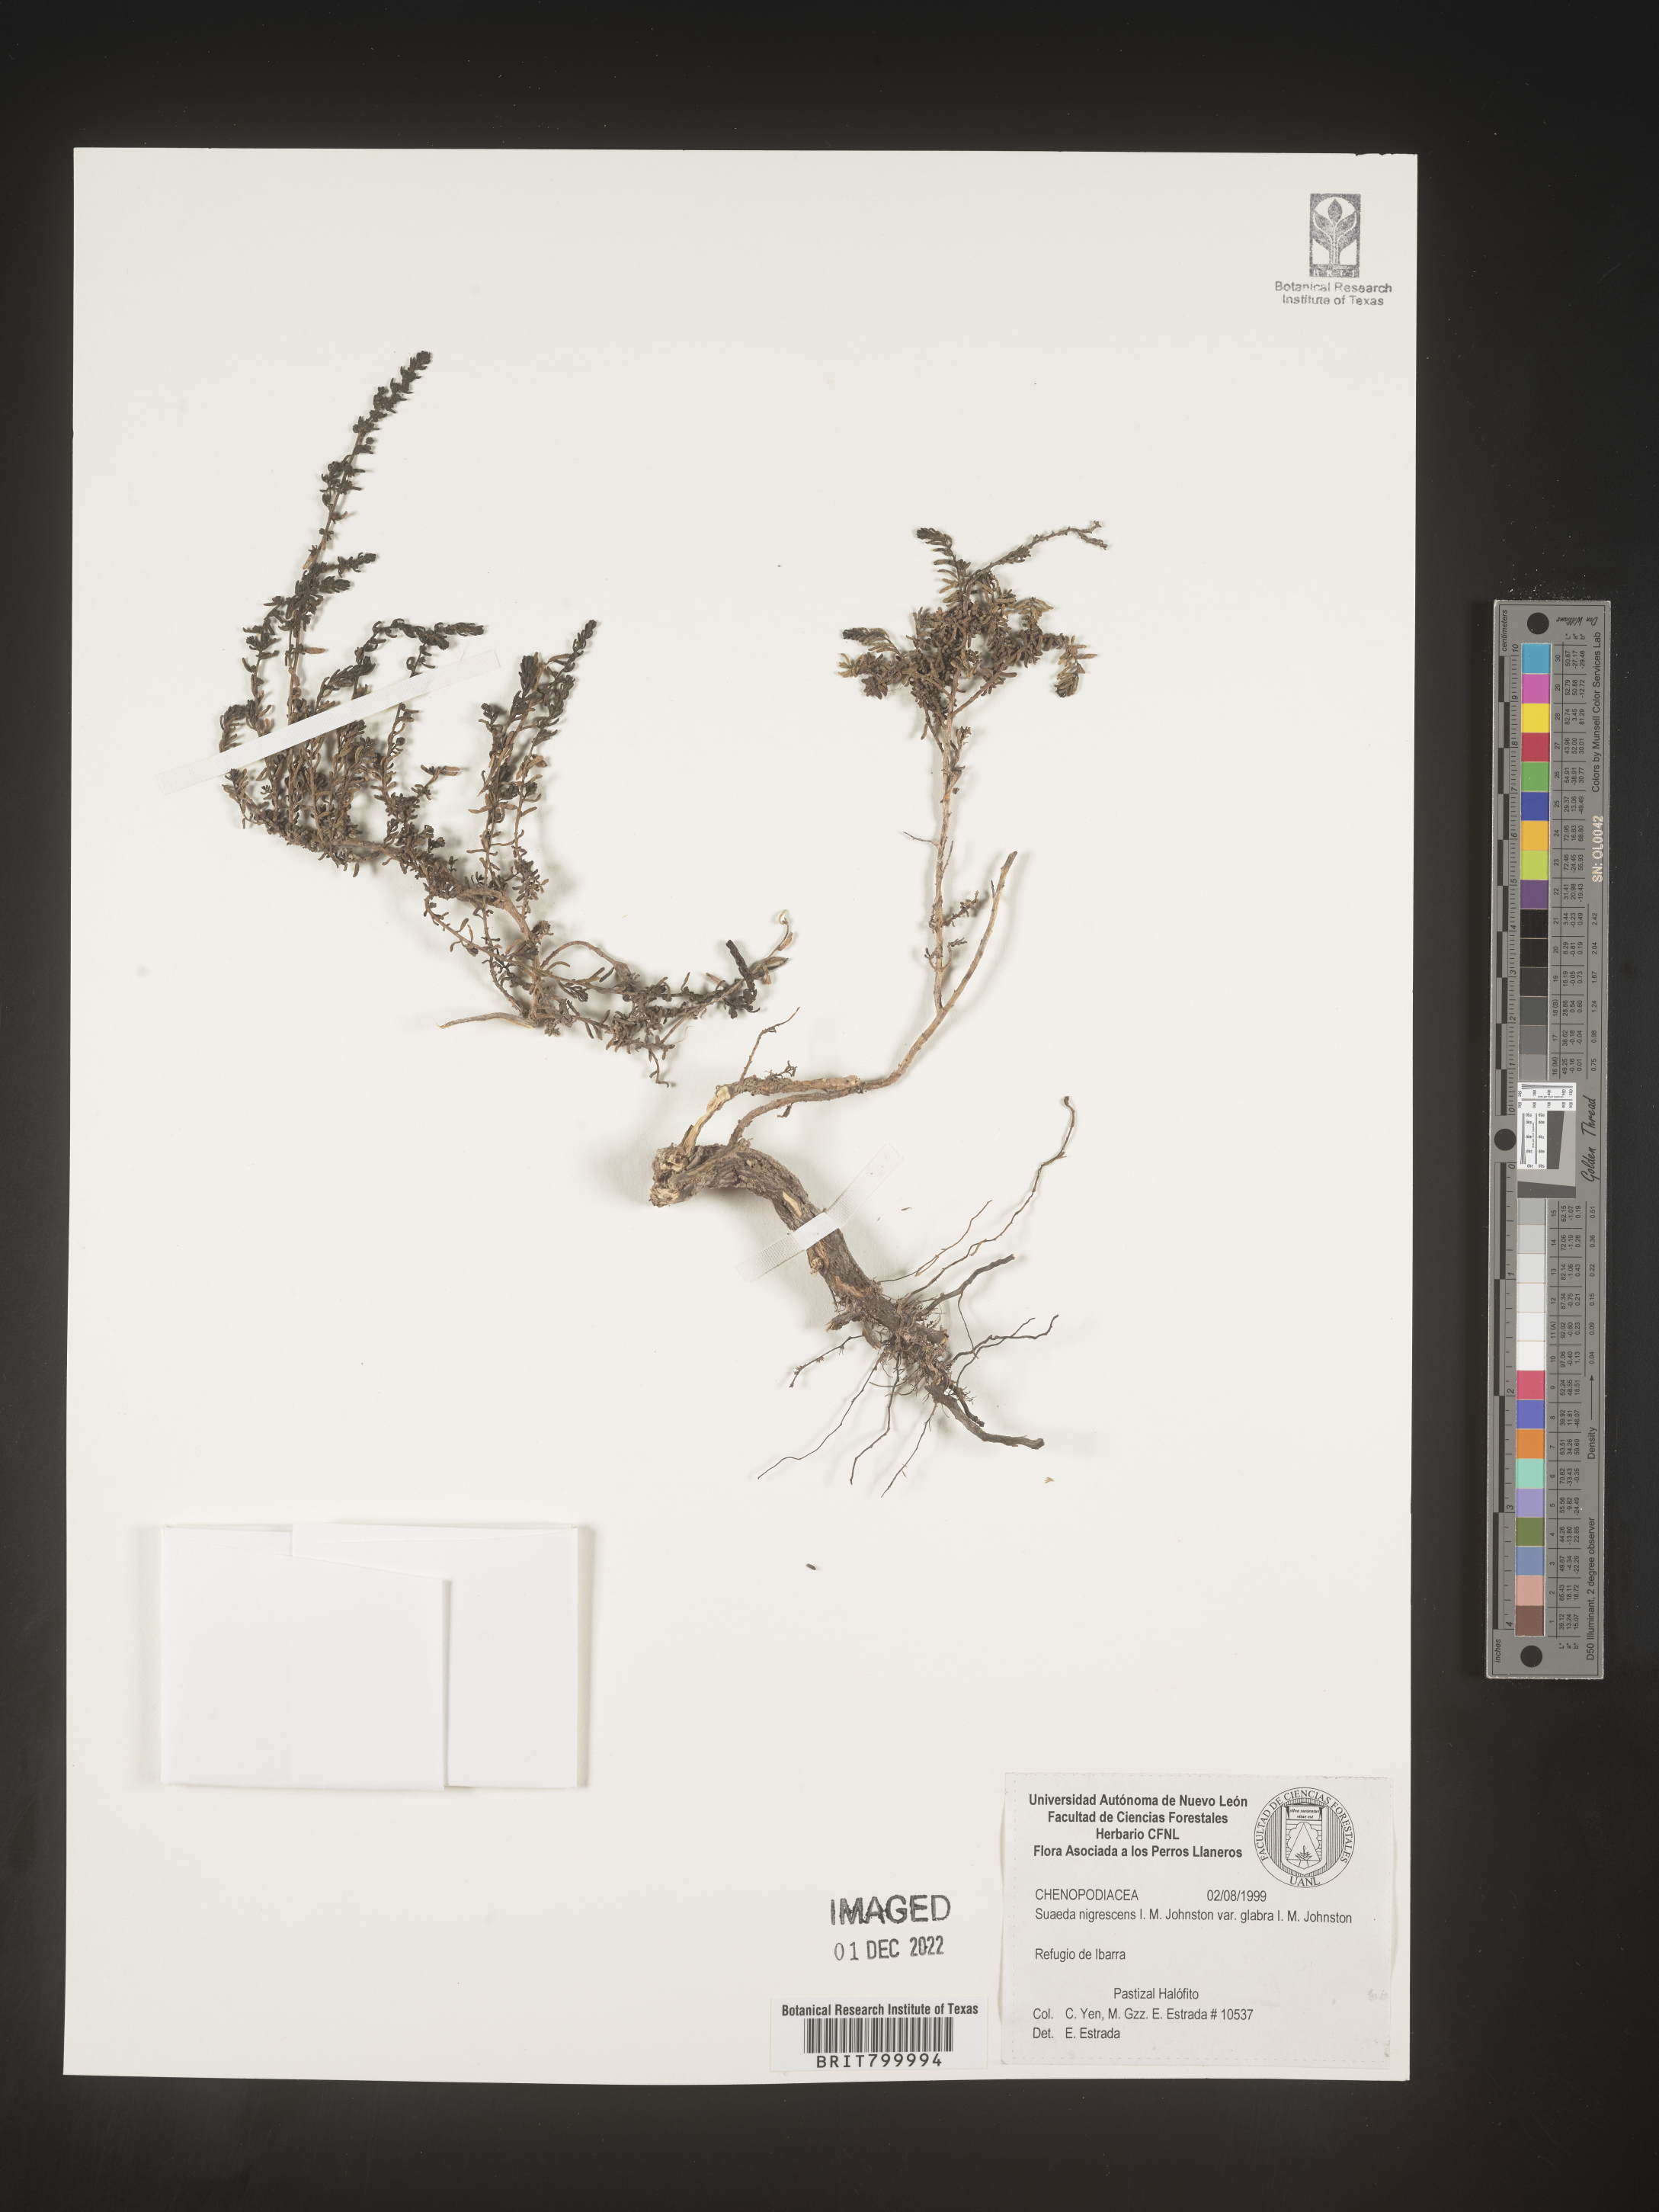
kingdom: Plantae
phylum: Tracheophyta
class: Magnoliopsida
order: Caryophyllales
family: Amaranthaceae
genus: Suaeda
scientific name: Suaeda
